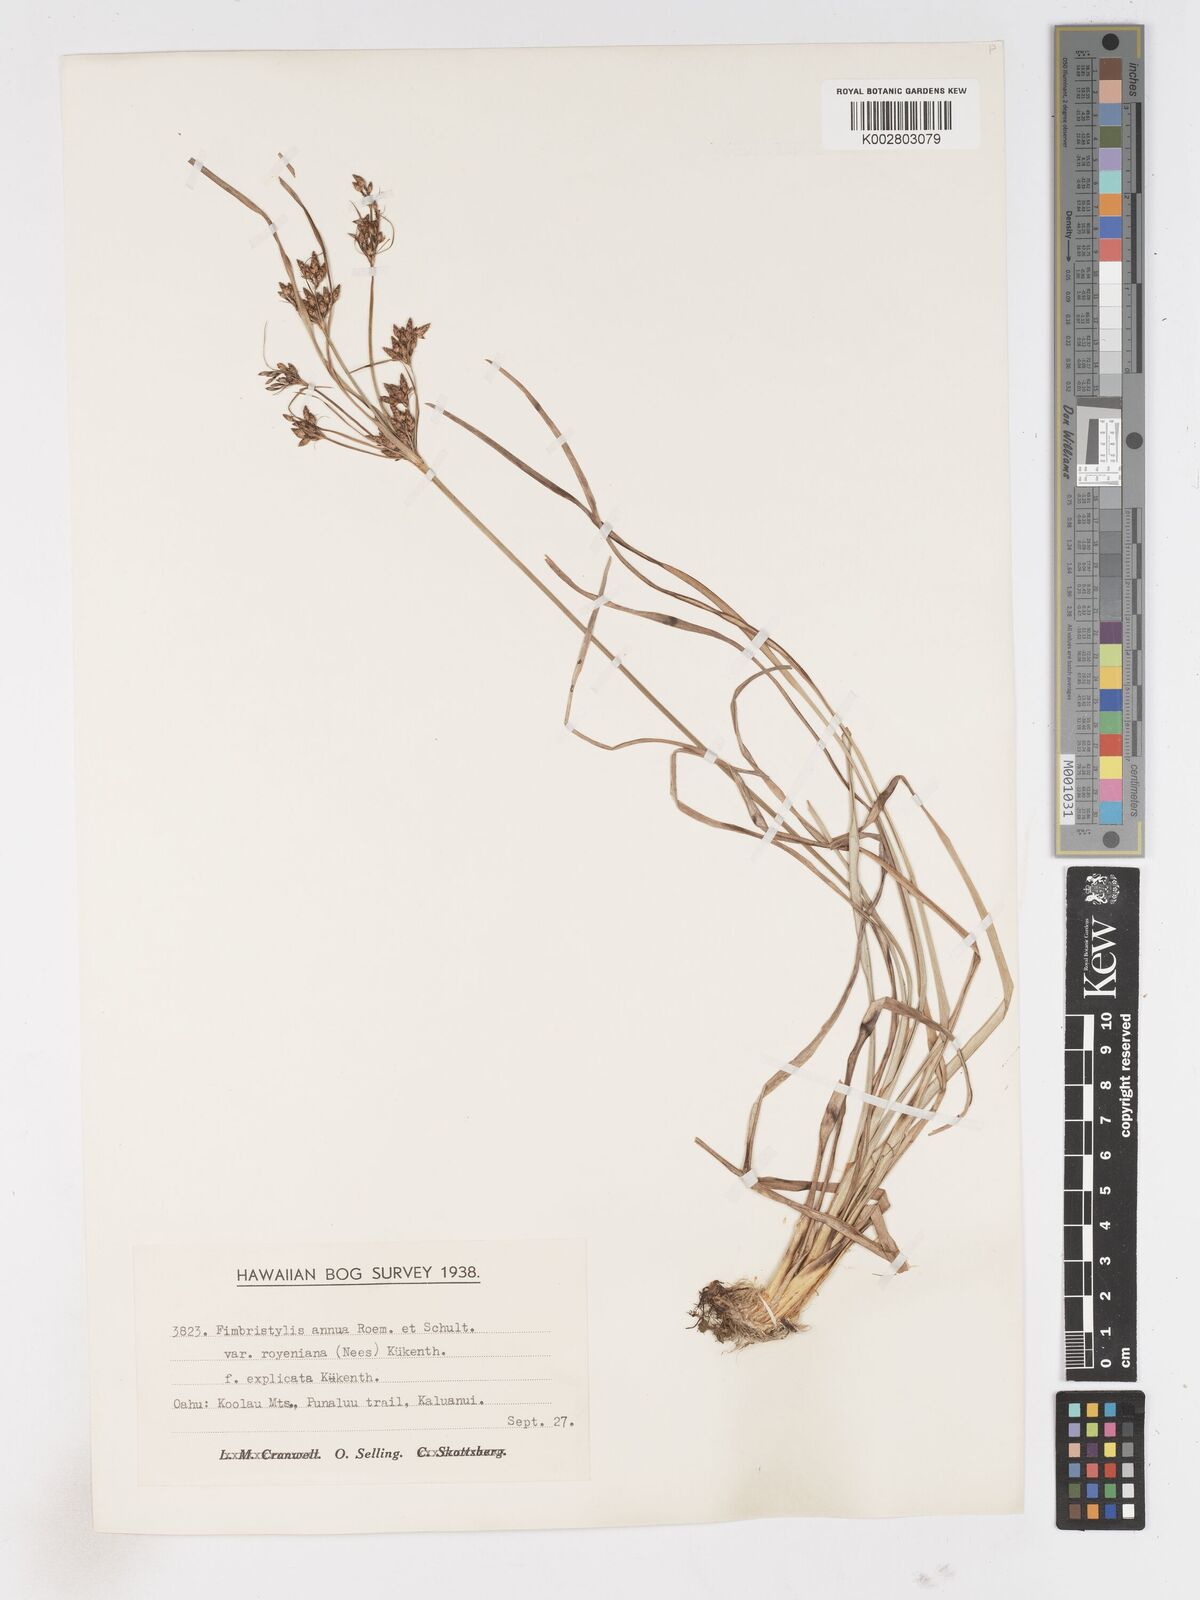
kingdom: Plantae
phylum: Tracheophyta
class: Liliopsida
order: Poales
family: Cyperaceae
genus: Fimbristylis
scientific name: Fimbristylis dichotoma
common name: Forked fimbry
